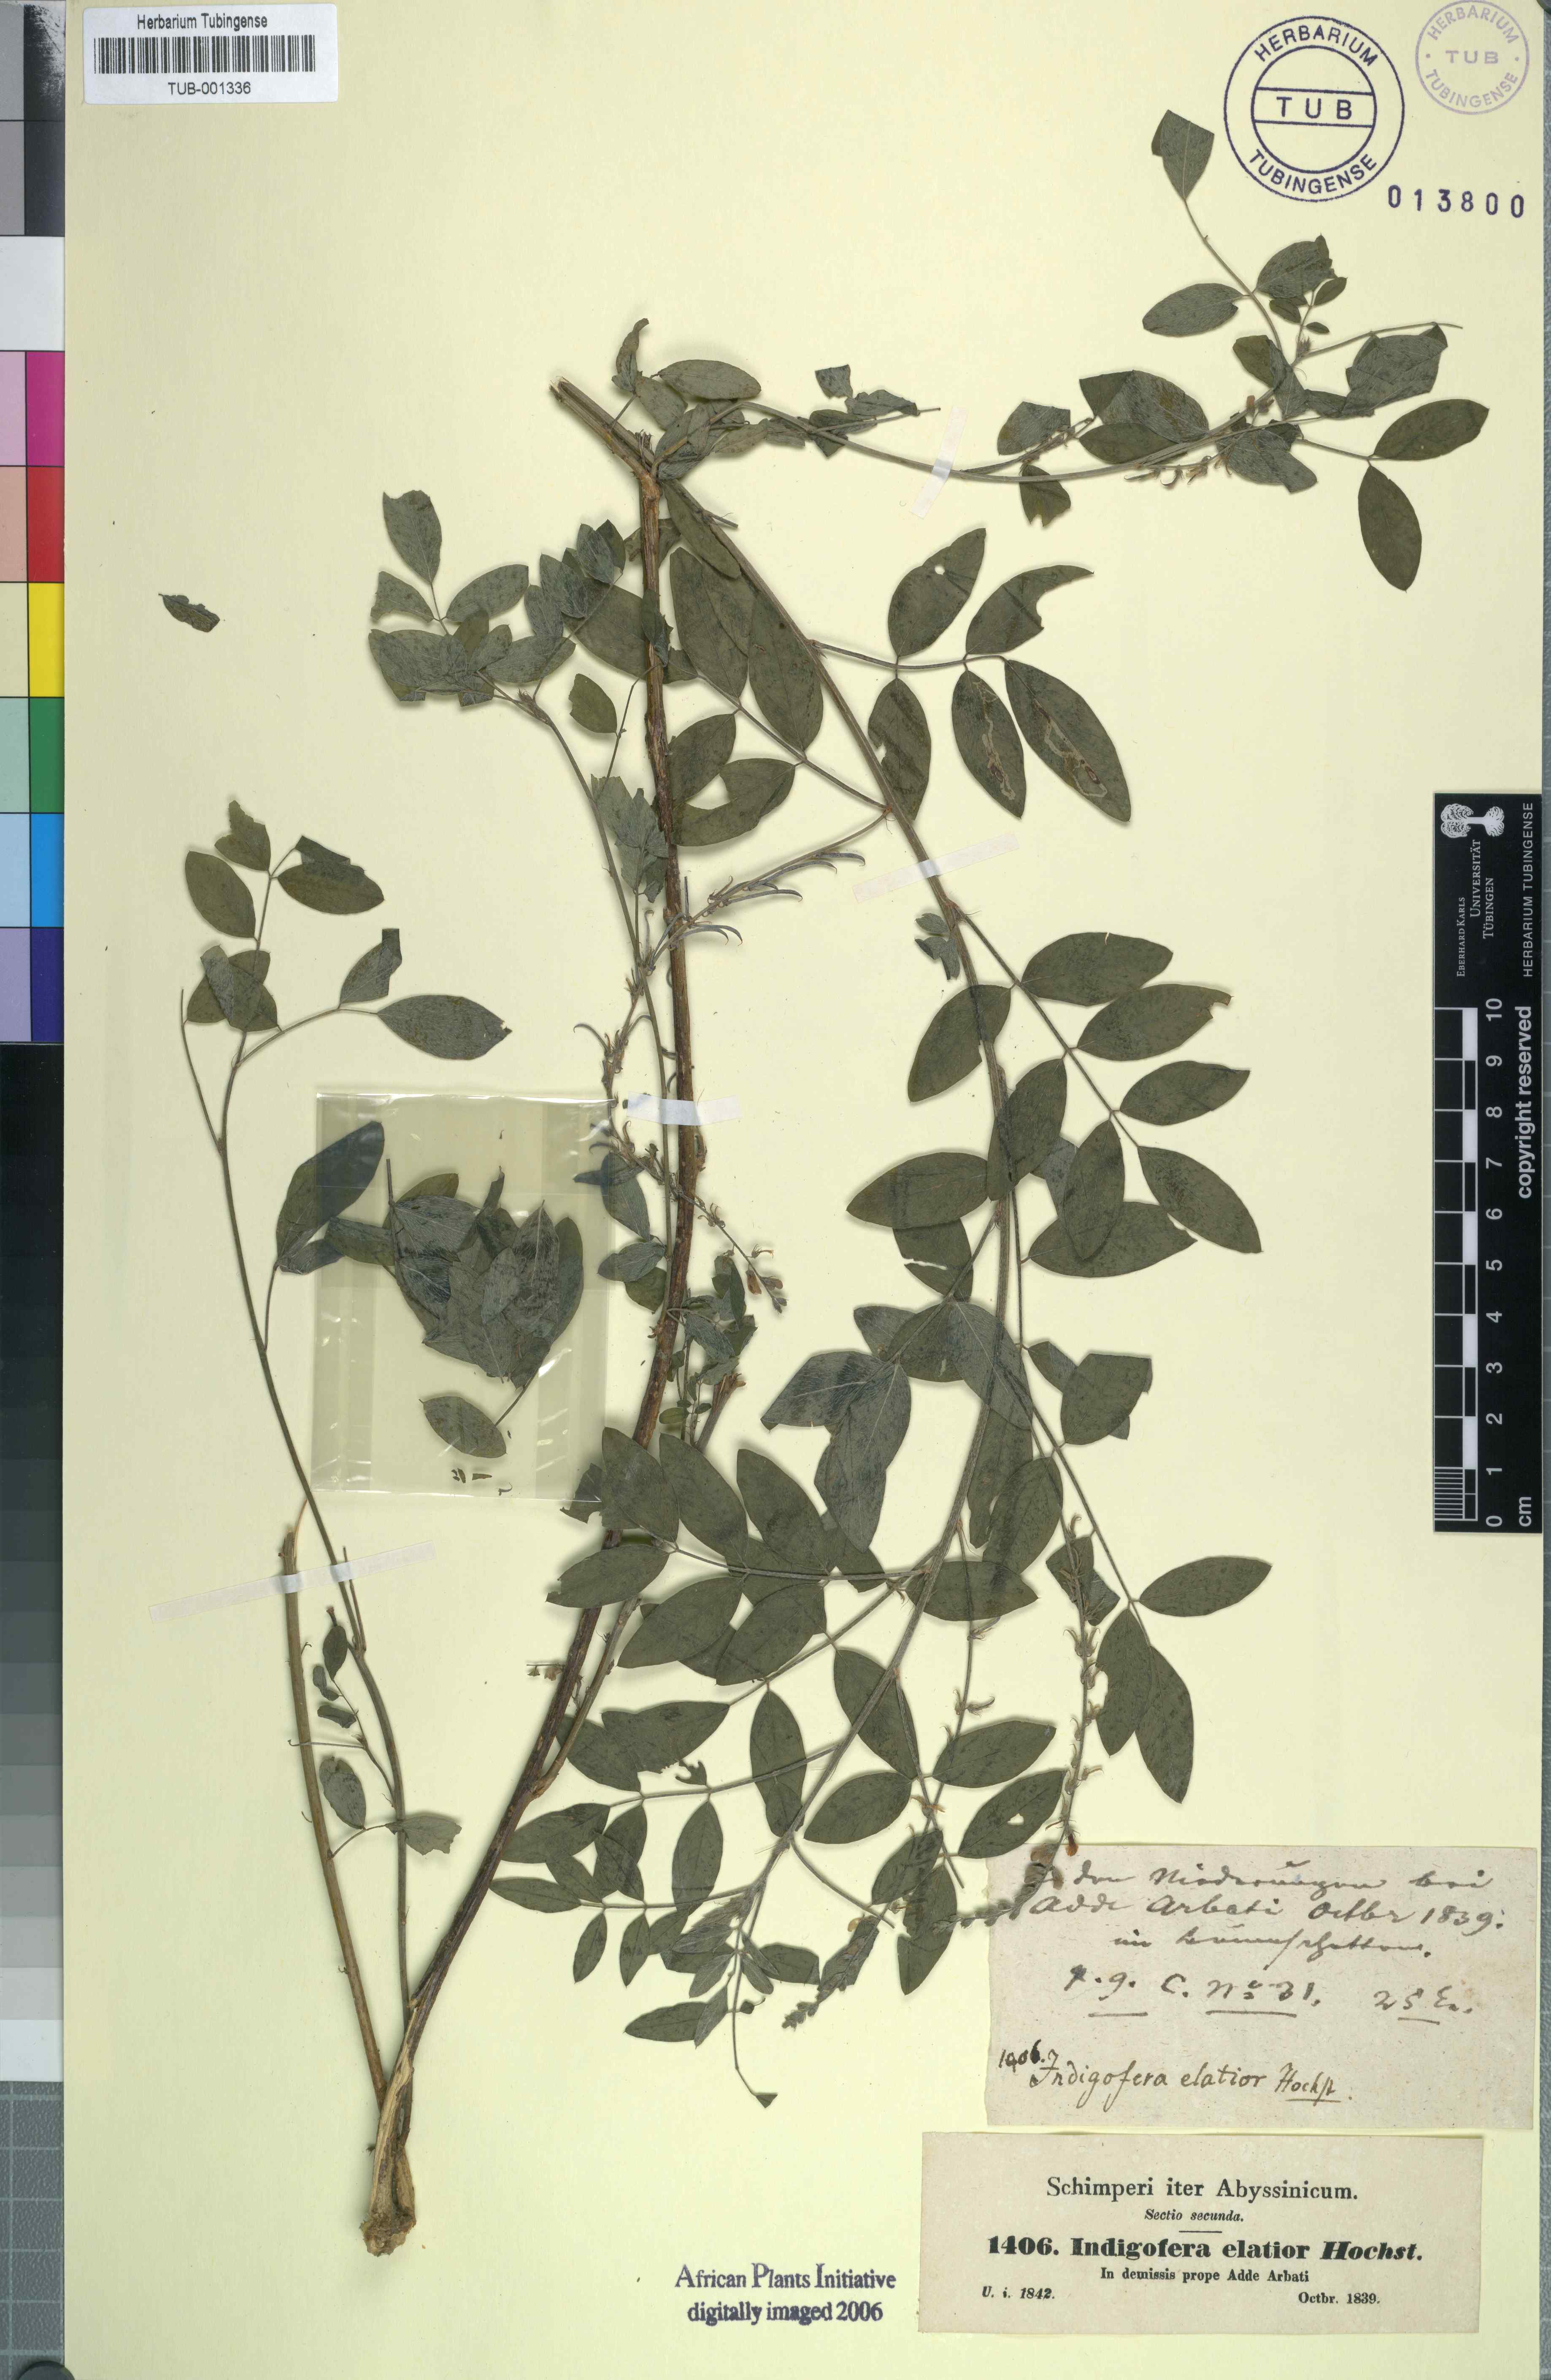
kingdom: Plantae
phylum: Tracheophyta
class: Magnoliopsida
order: Fabales
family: Fabaceae
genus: Indigofera
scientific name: Indigofera
